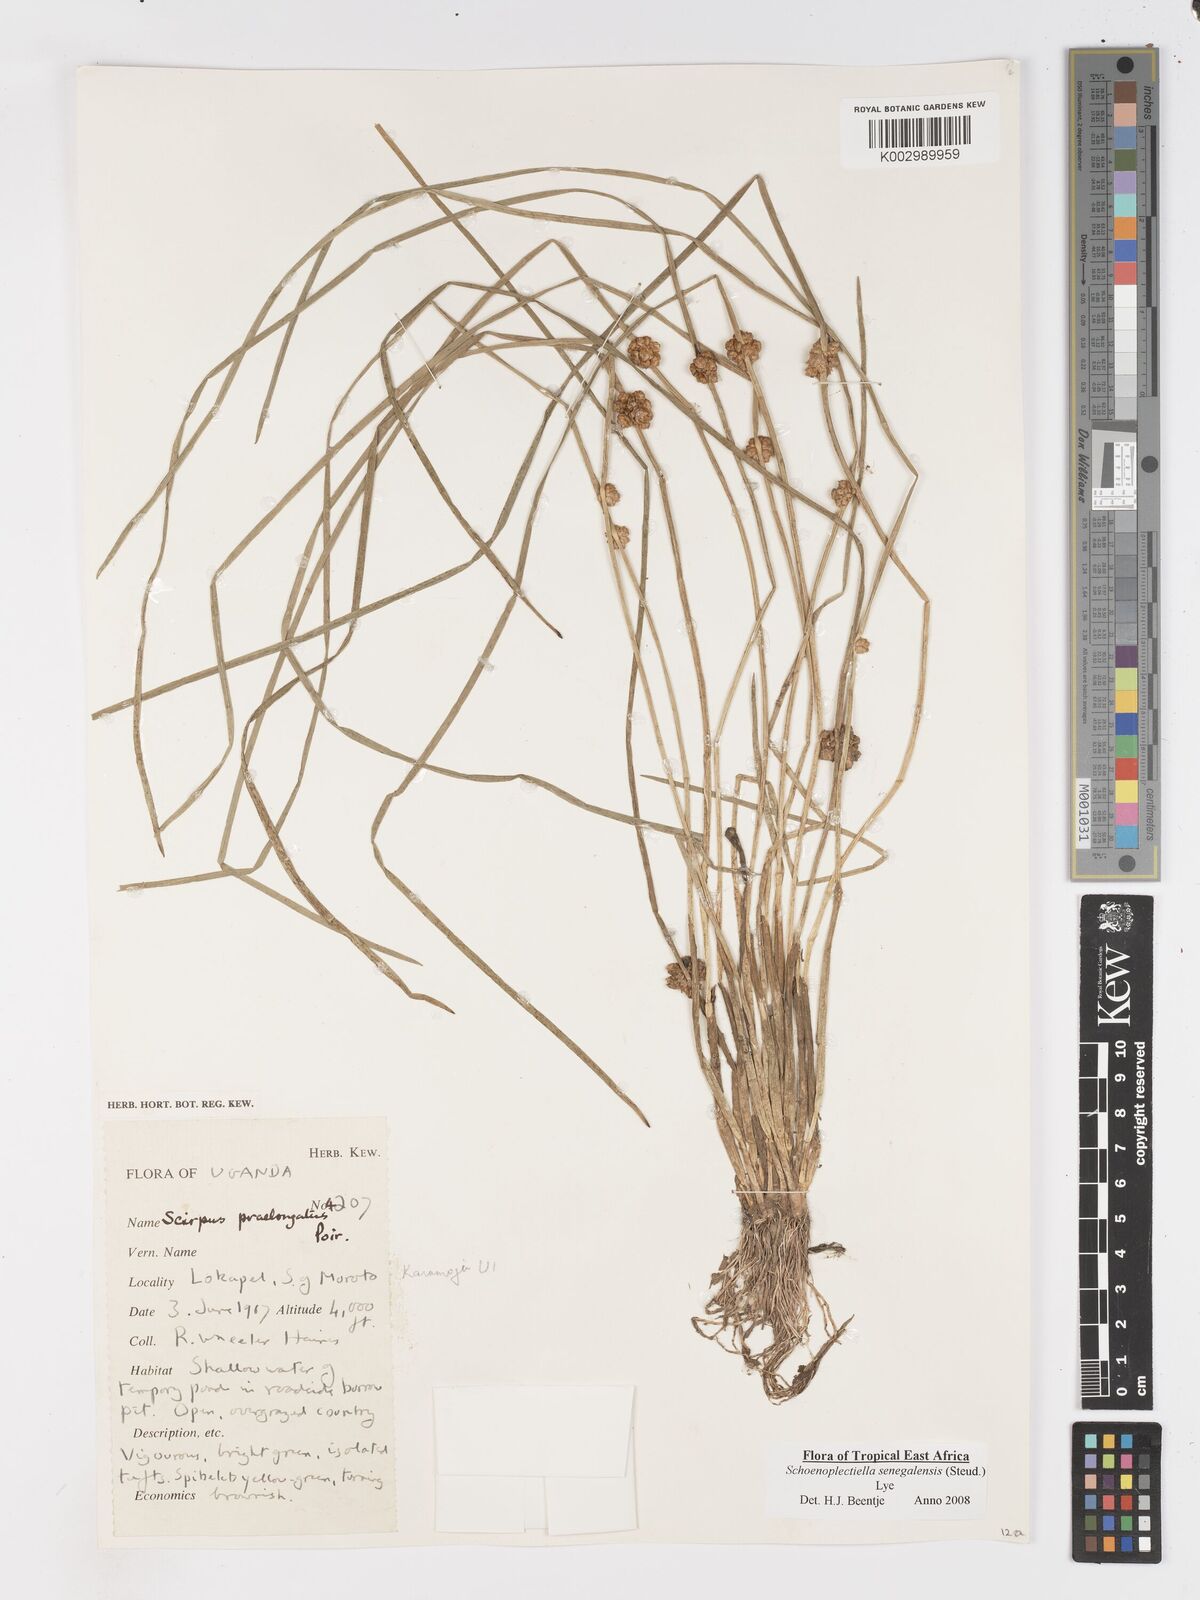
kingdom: Plantae
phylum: Tracheophyta
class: Liliopsida
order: Poales
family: Cyperaceae
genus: Schoenoplectiella
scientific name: Schoenoplectiella senegalensis
